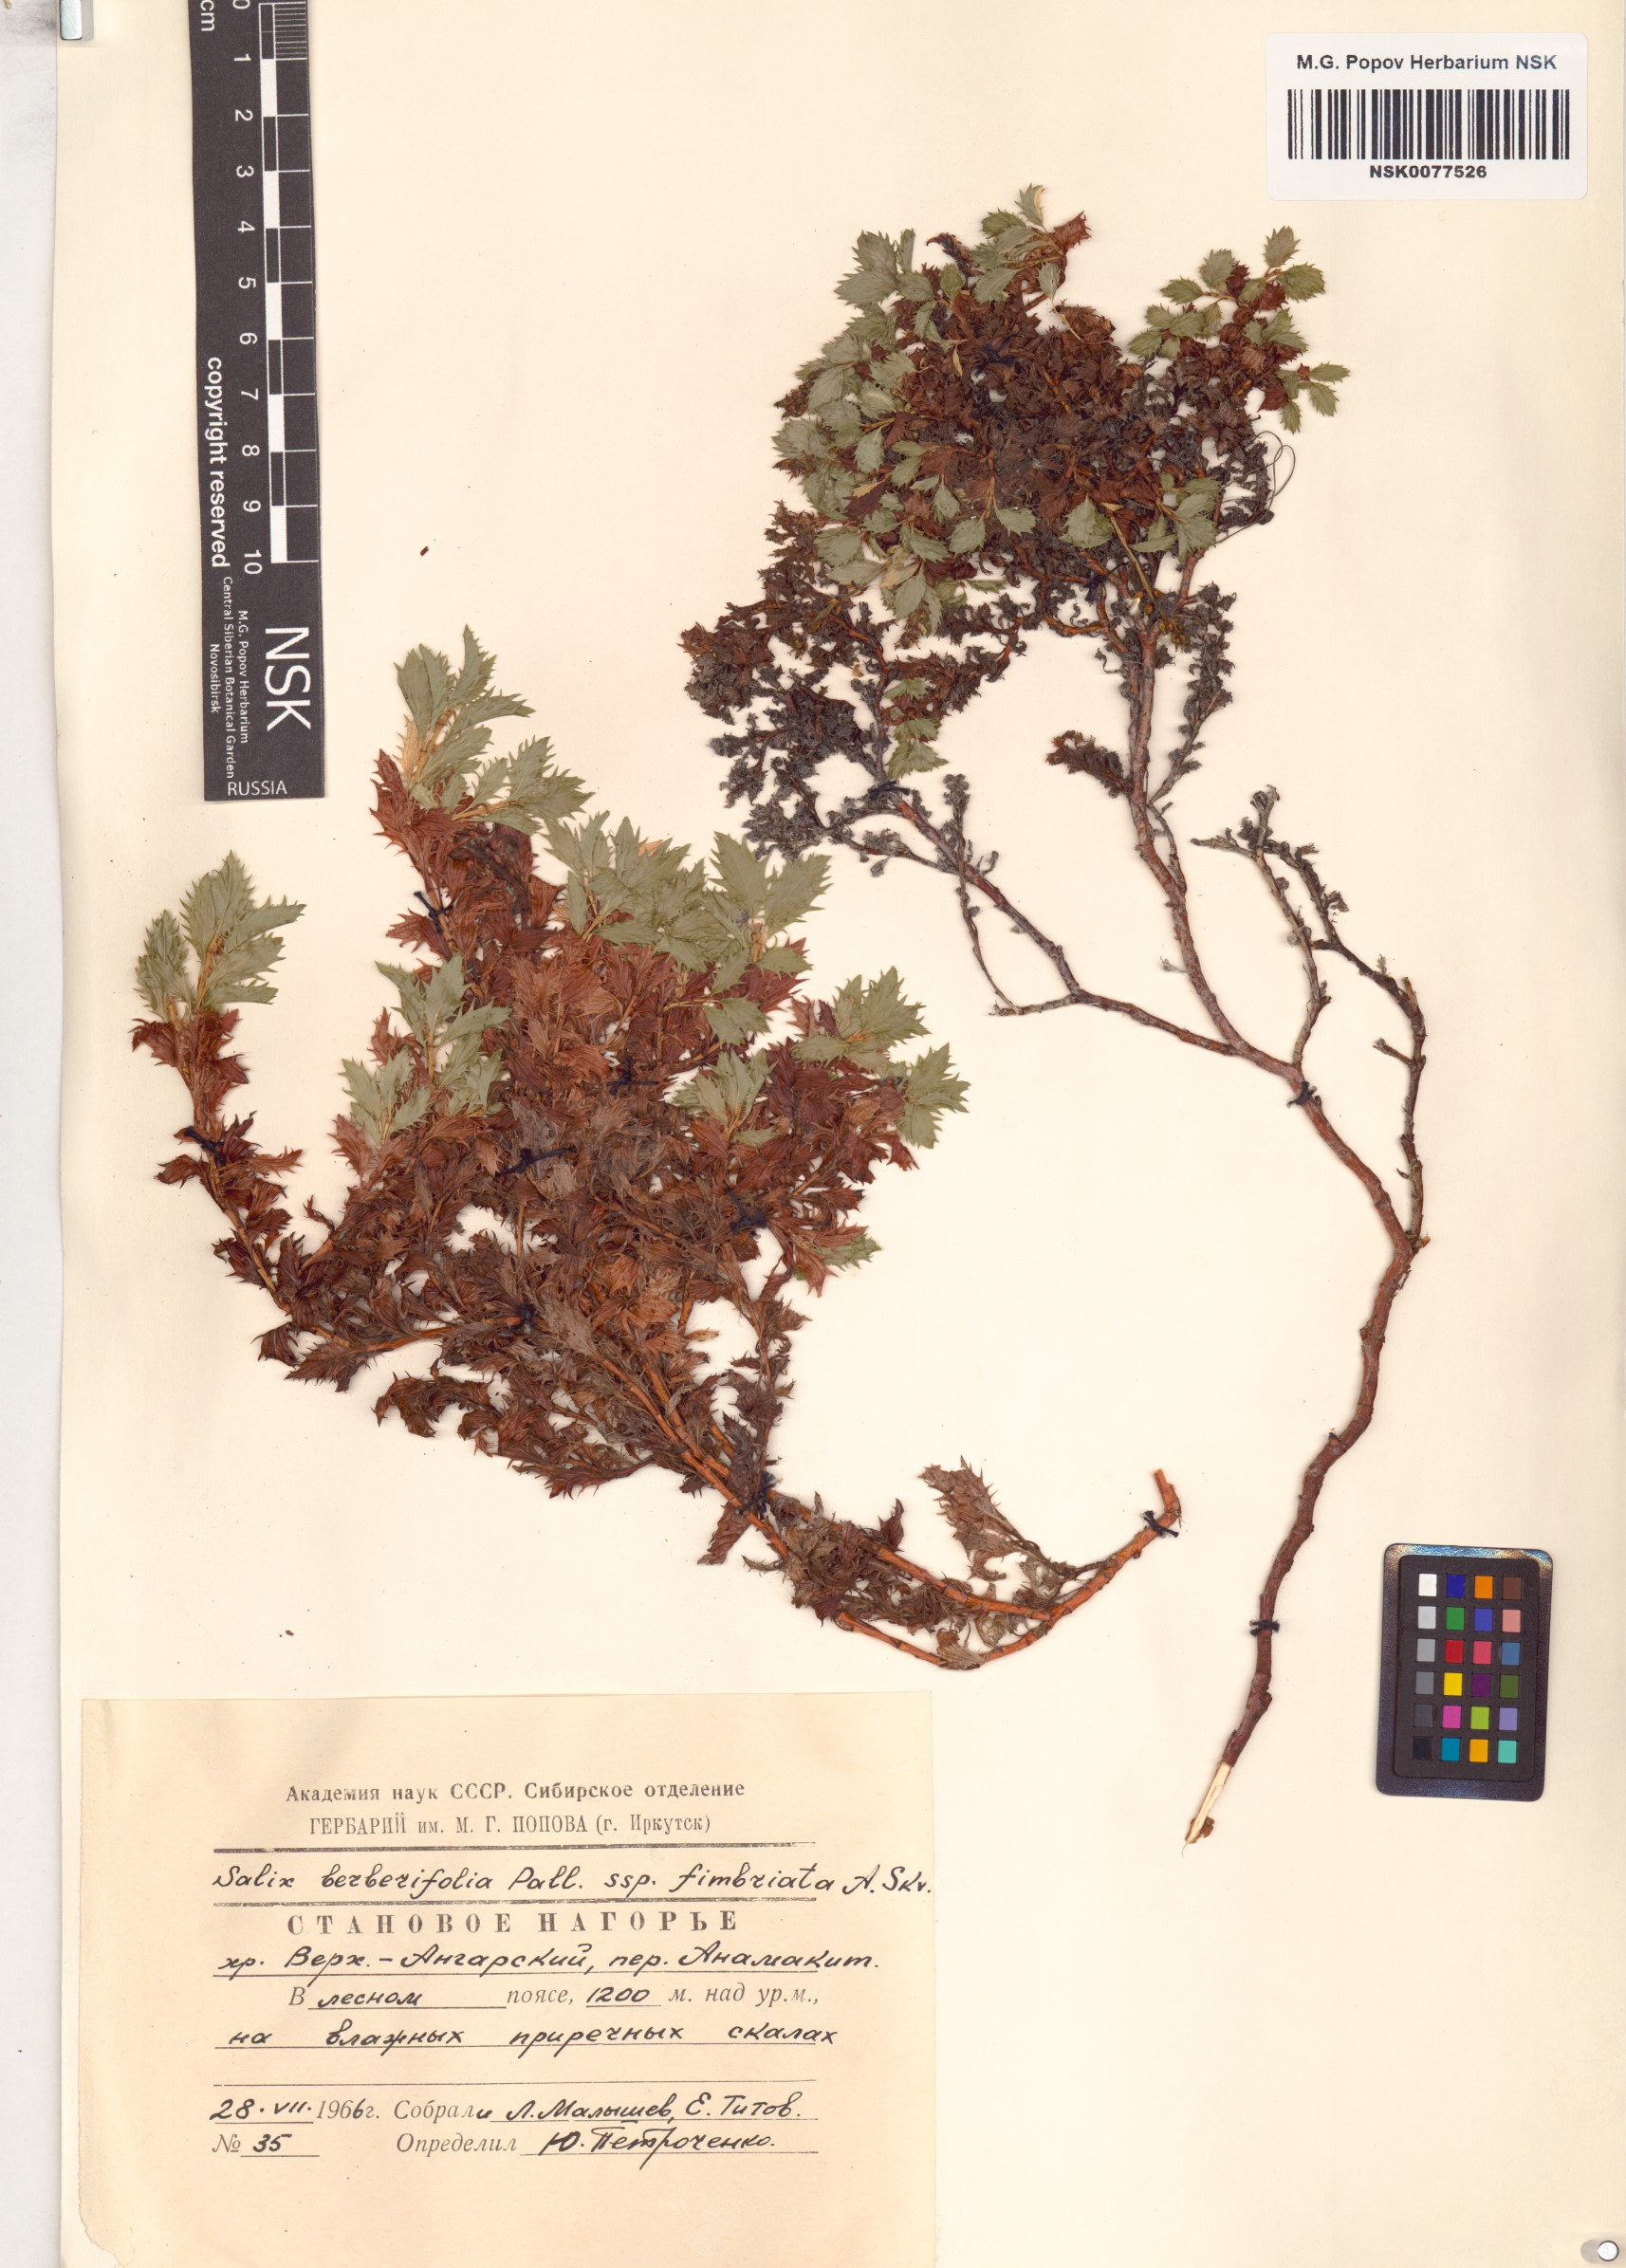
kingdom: Plantae
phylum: Tracheophyta
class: Magnoliopsida
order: Malpighiales
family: Salicaceae
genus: Salix
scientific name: Salix berberifolia
